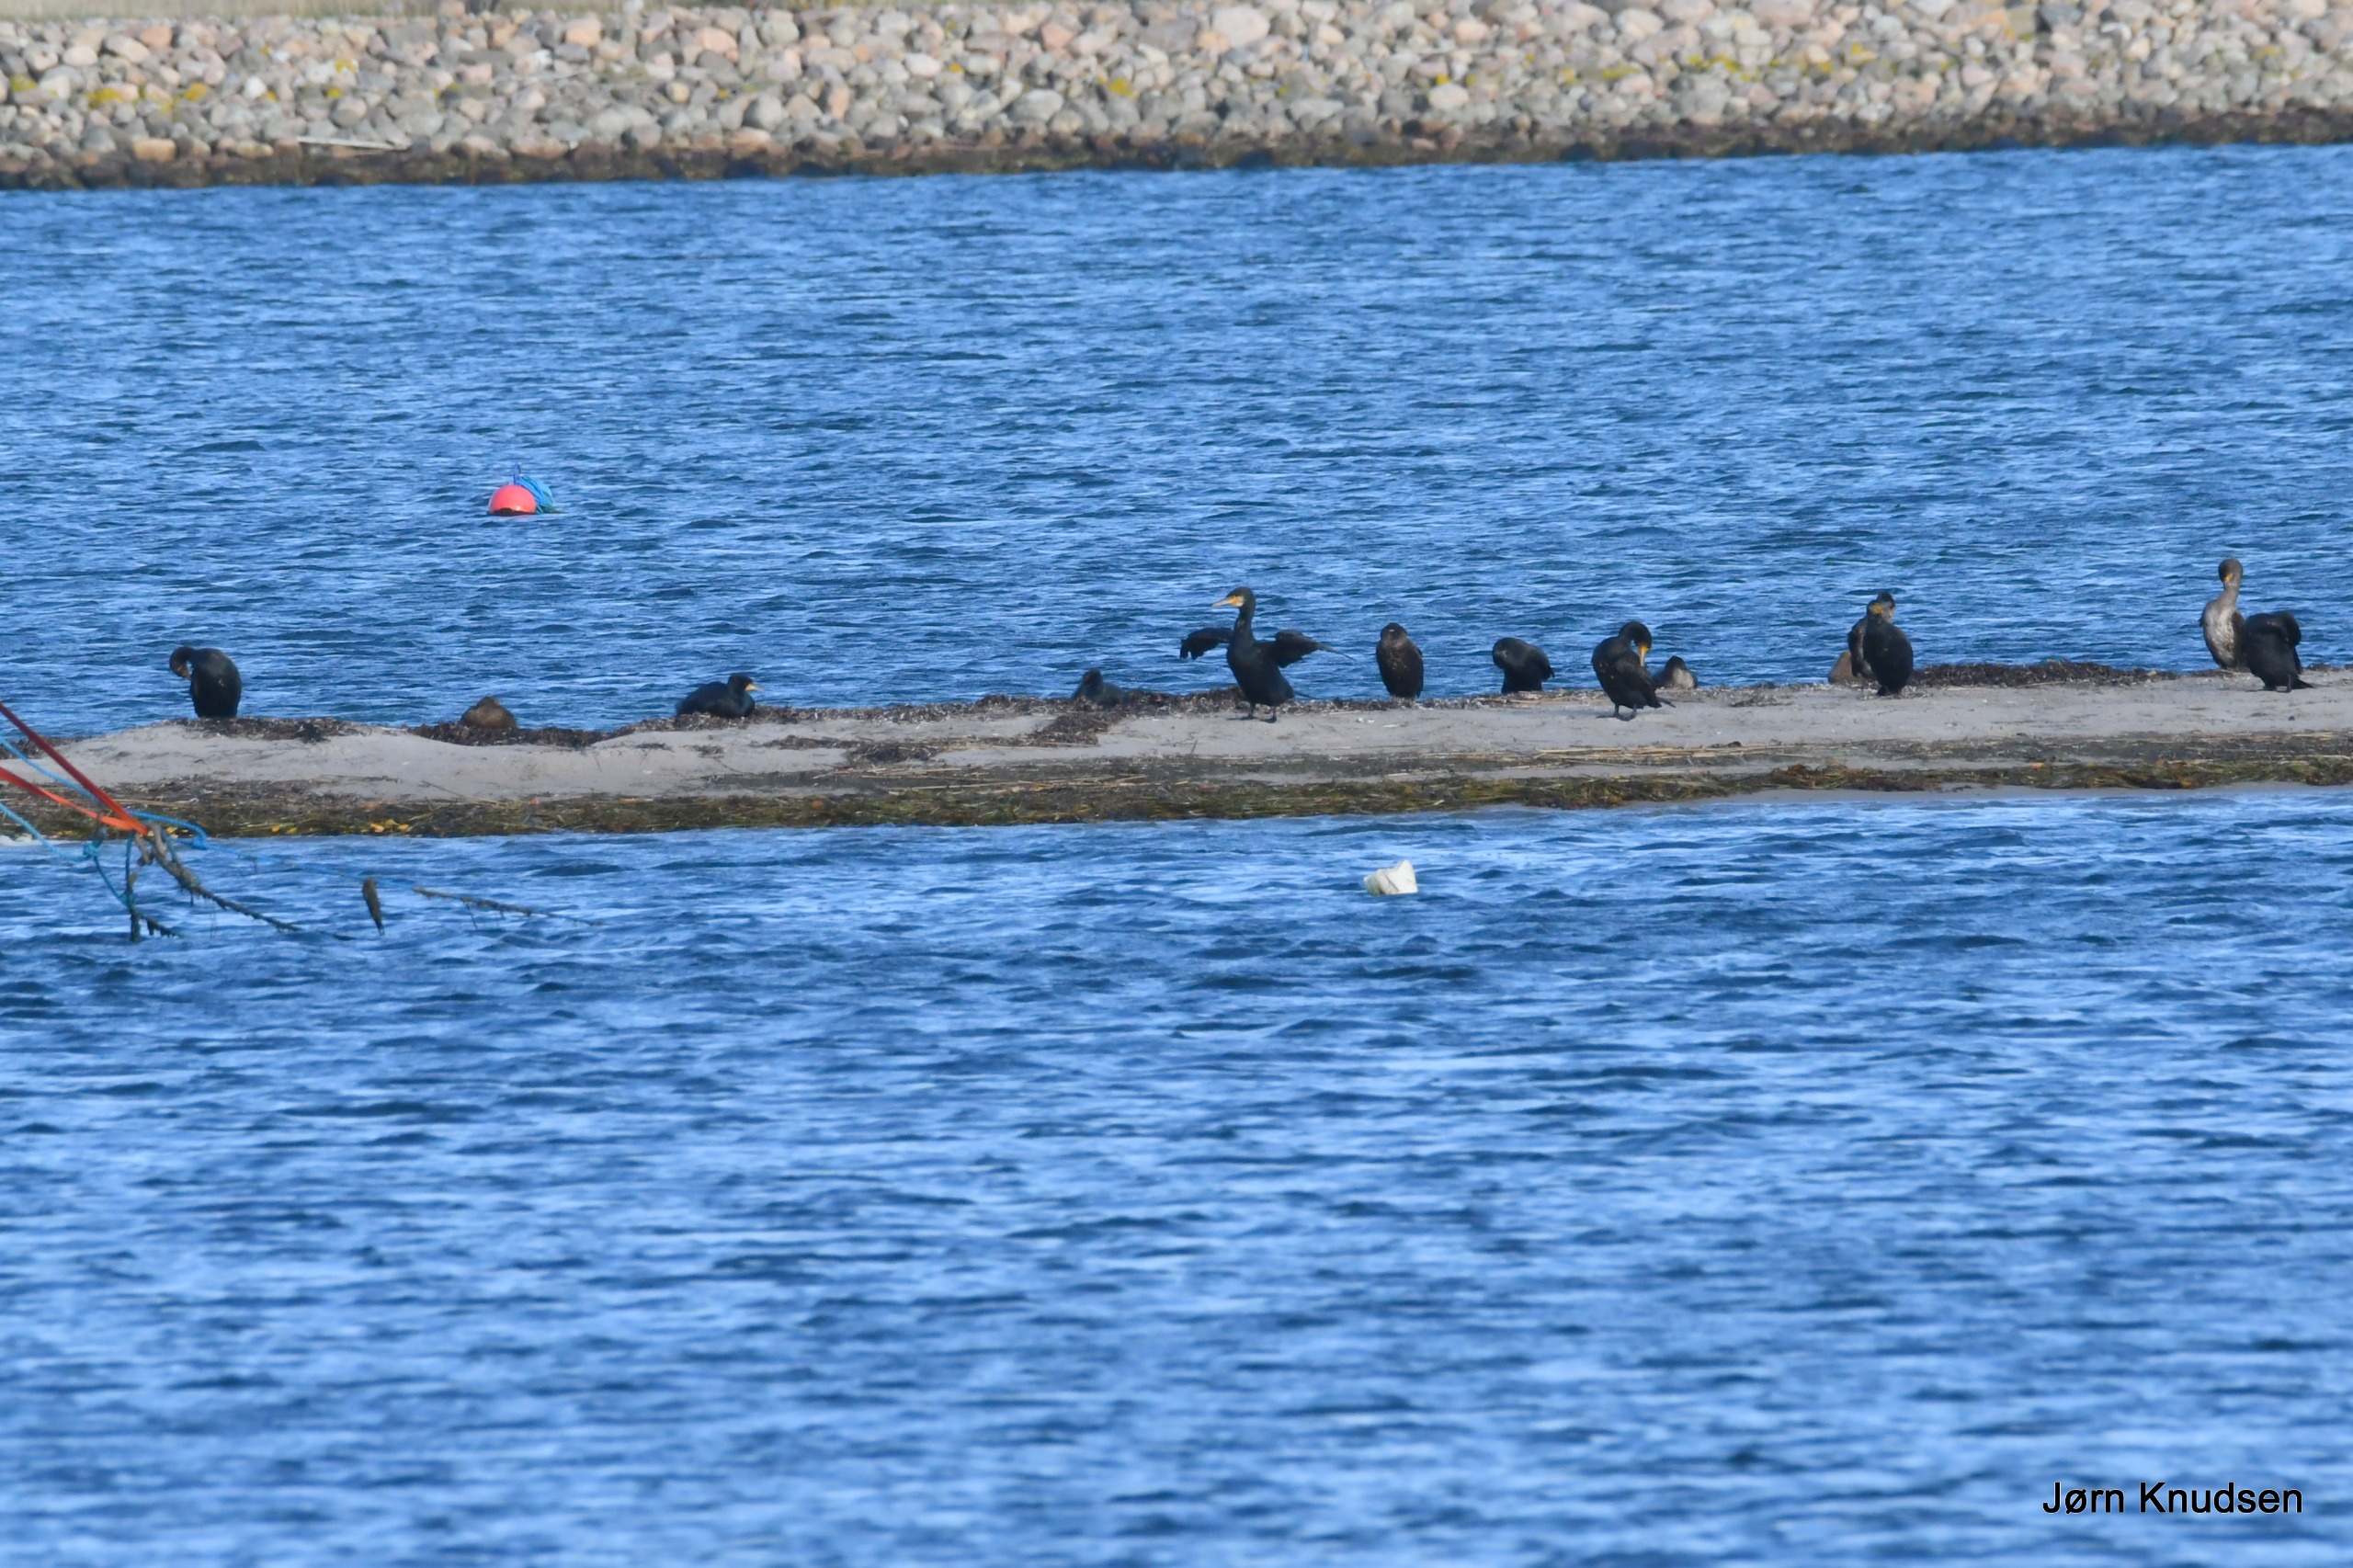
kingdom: Animalia
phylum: Chordata
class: Aves
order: Suliformes
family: Phalacrocoracidae
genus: Phalacrocorax
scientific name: Phalacrocorax carbo
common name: Skarv
